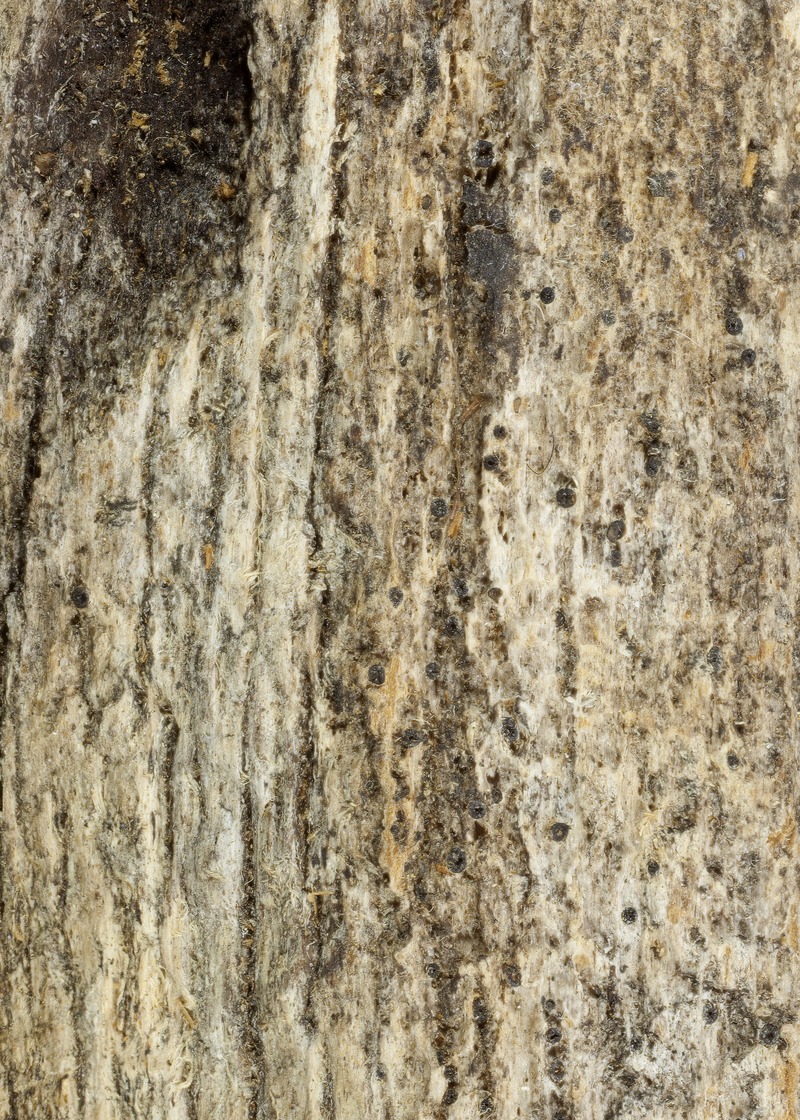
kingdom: Fungi
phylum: Ascomycota
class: Lecanoromycetes
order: Ostropales
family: Odontotremataceae
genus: Odontura
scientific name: Odontura rhaphidospora
